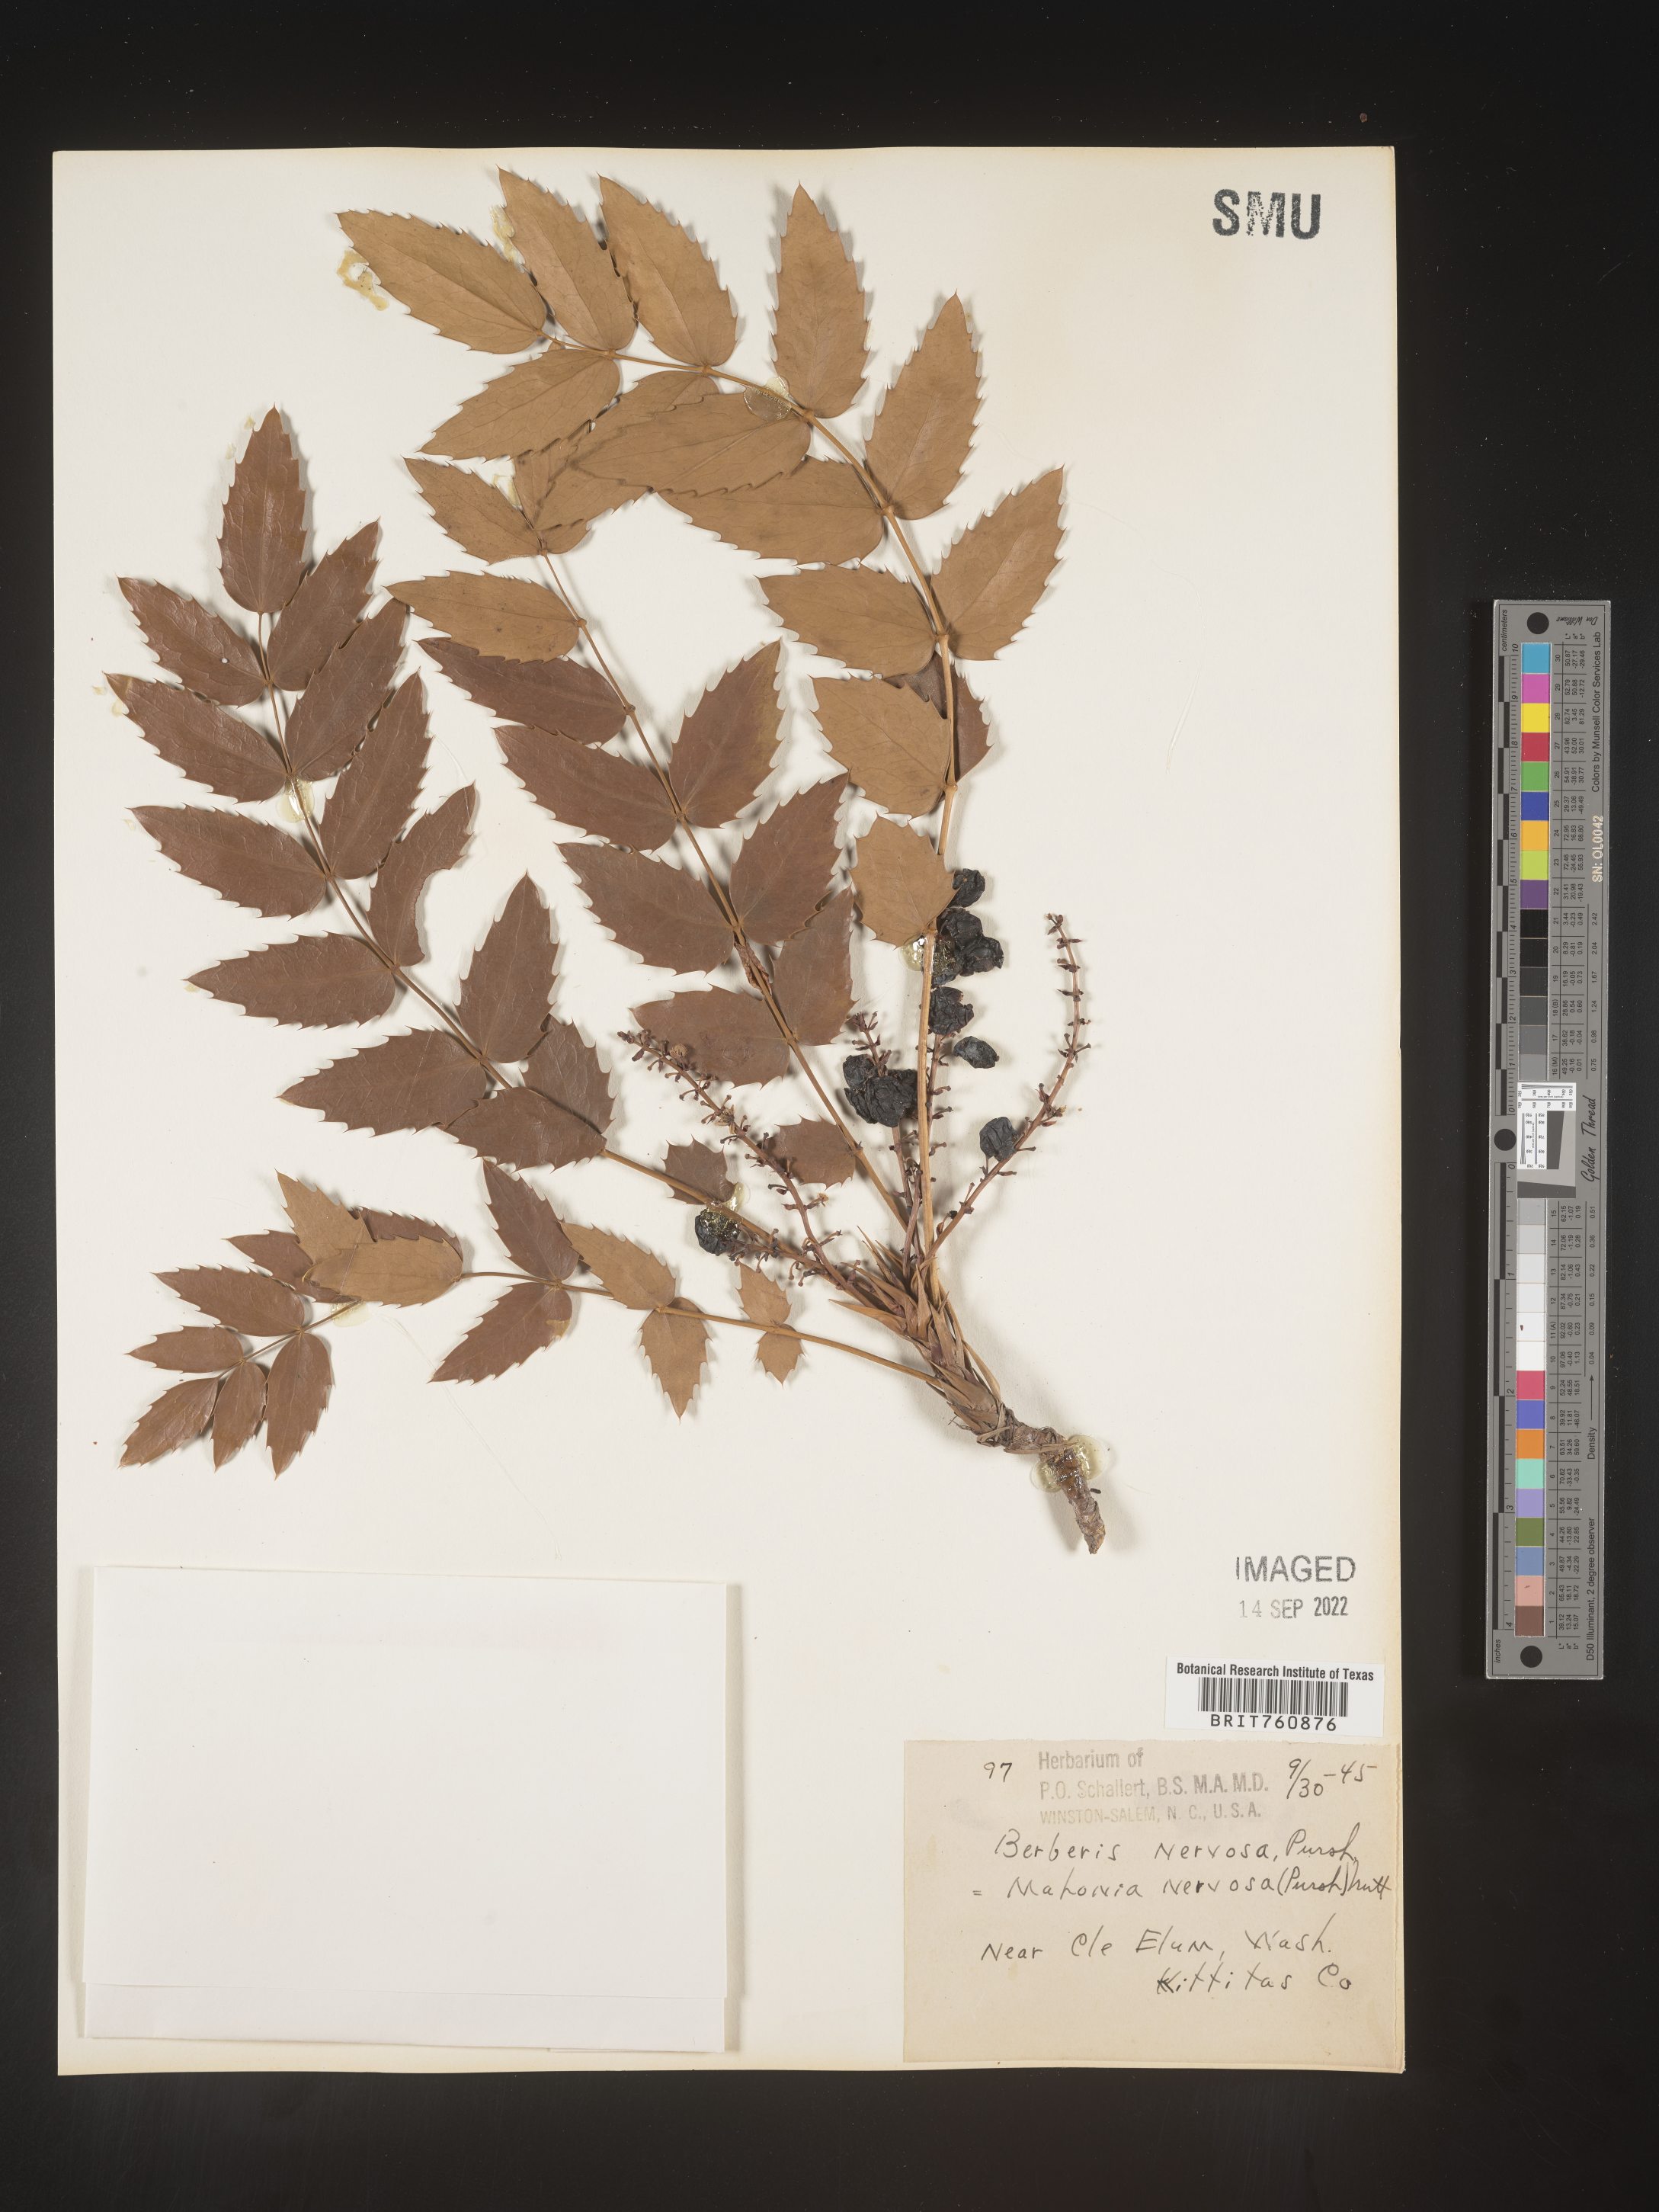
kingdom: Plantae
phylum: Tracheophyta
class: Magnoliopsida
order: Ranunculales
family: Berberidaceae
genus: Mahonia
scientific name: Mahonia
